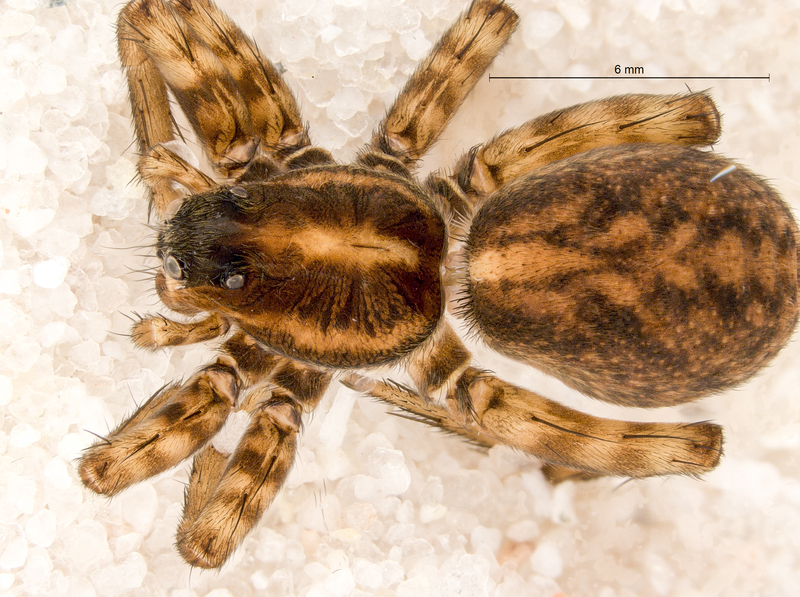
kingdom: Animalia
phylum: Arthropoda
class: Arachnida
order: Araneae
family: Lycosidae
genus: Pardosa
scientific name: Pardosa pullata
